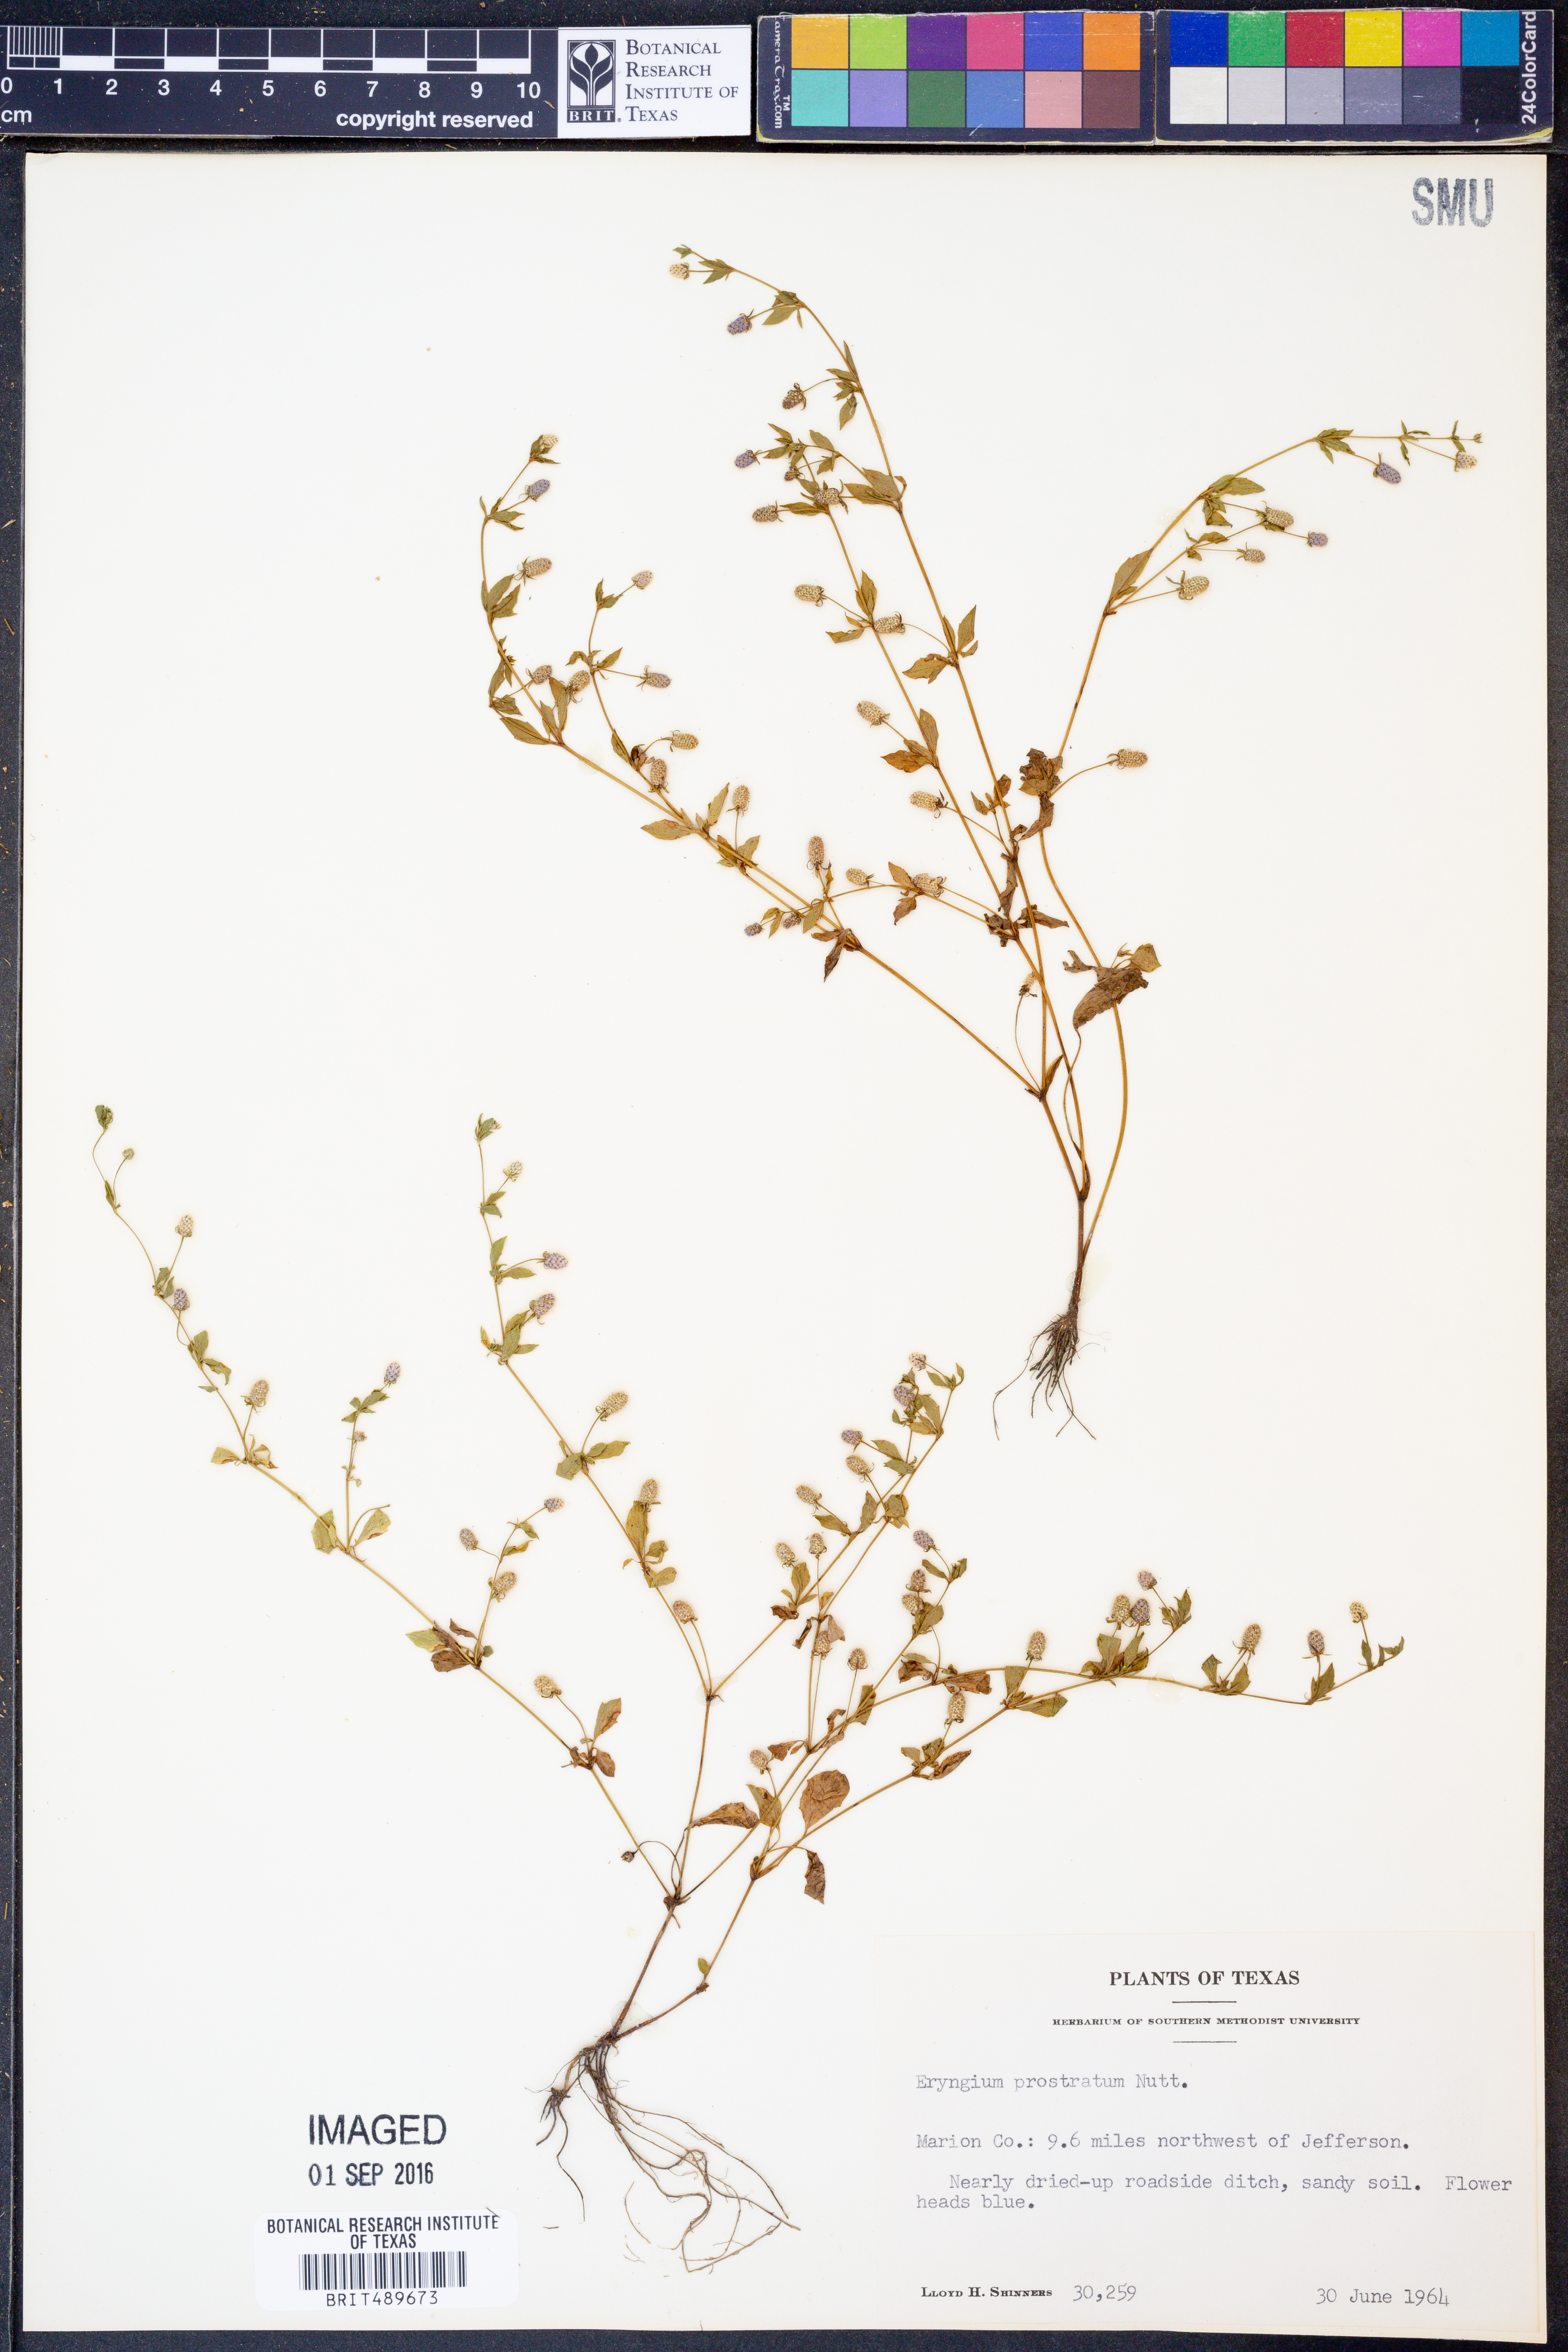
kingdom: Plantae
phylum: Tracheophyta
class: Magnoliopsida
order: Apiales
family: Apiaceae
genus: Eryngium
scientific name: Eryngium prostratum
